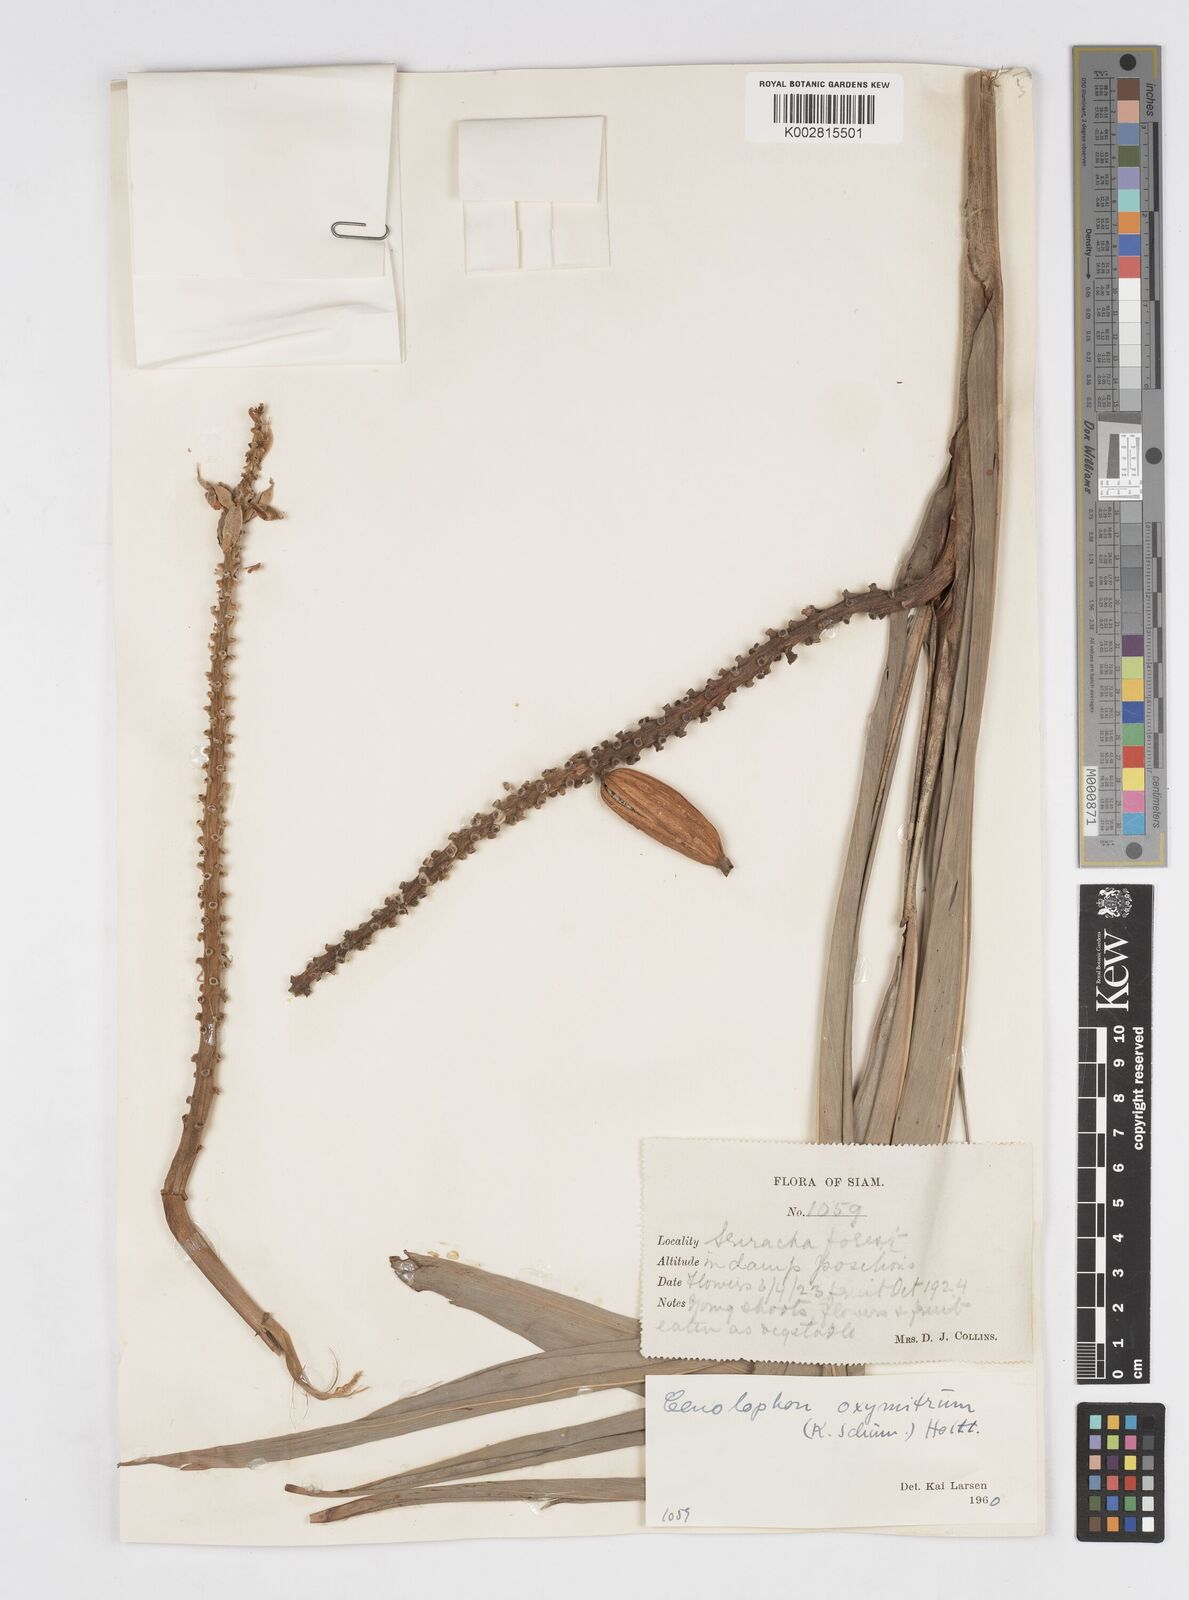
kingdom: Plantae
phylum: Tracheophyta
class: Liliopsida
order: Zingiberales
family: Zingiberaceae
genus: Alpinia
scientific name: Alpinia oxymitra
